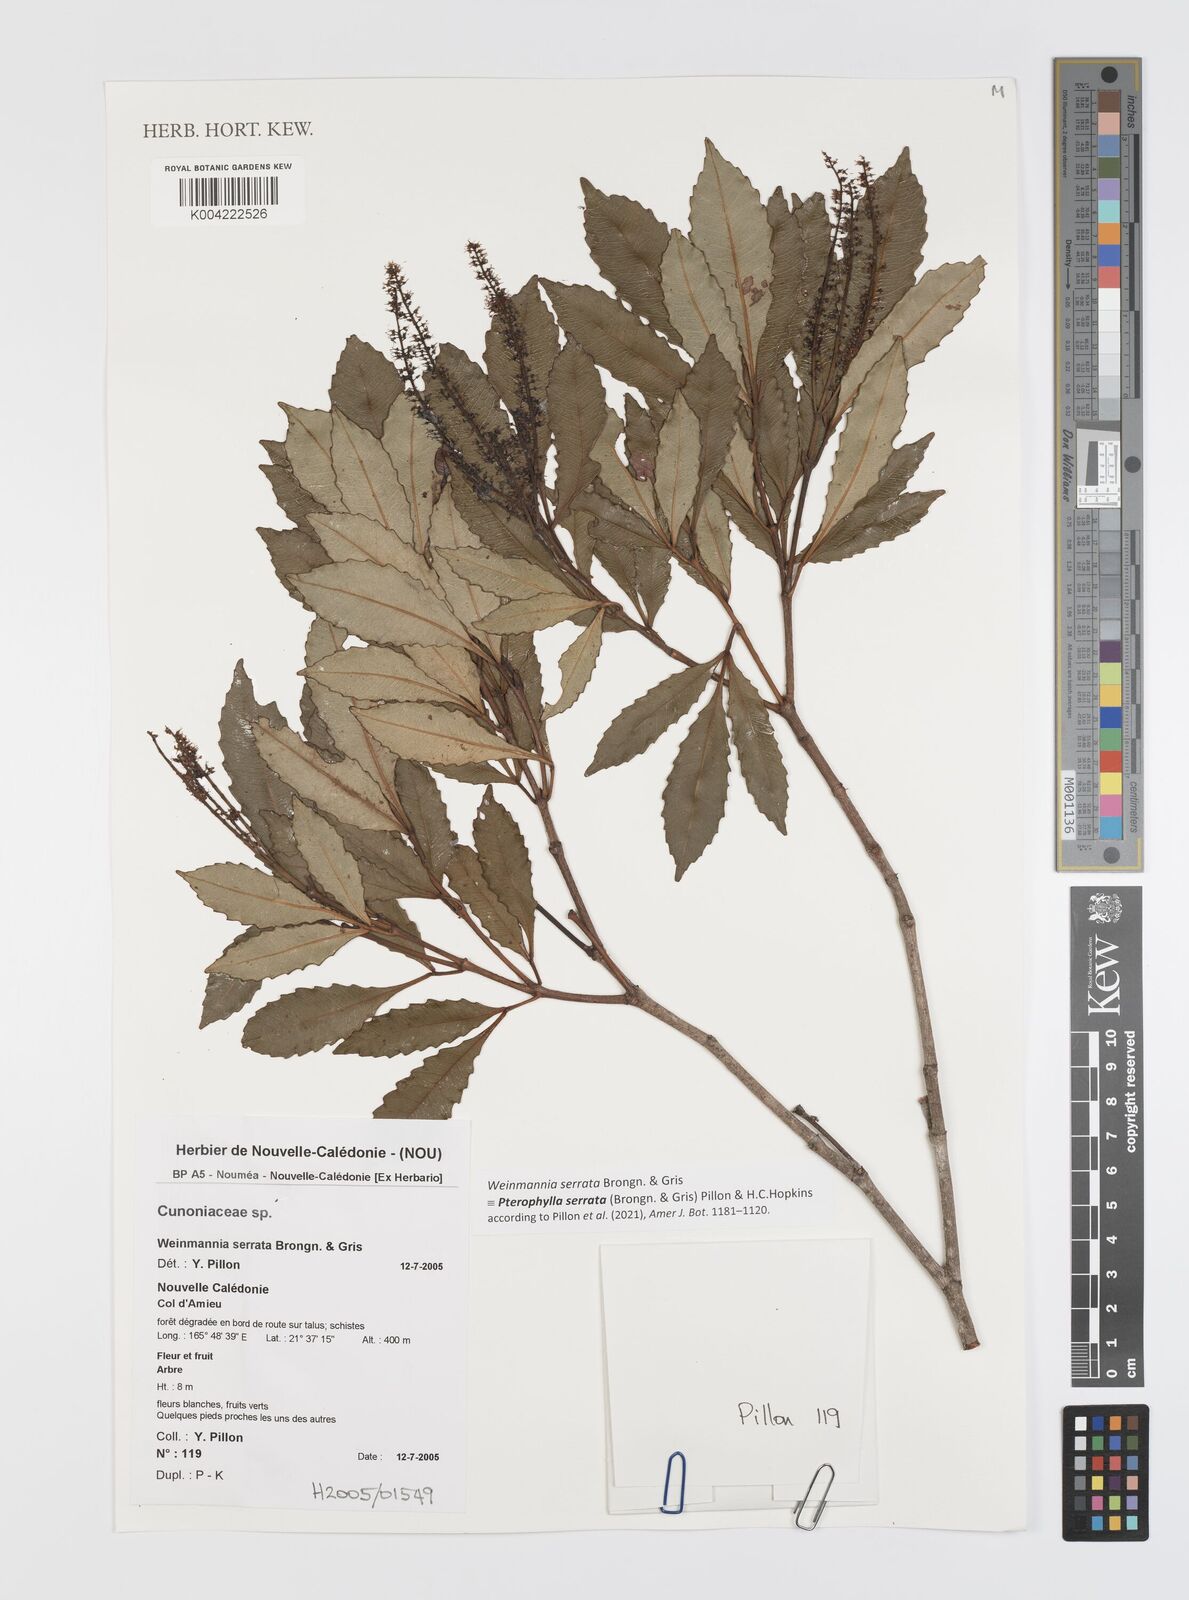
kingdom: Plantae
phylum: Tracheophyta
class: Magnoliopsida
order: Oxalidales
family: Cunoniaceae
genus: Pterophylla
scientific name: Pterophylla serrata
